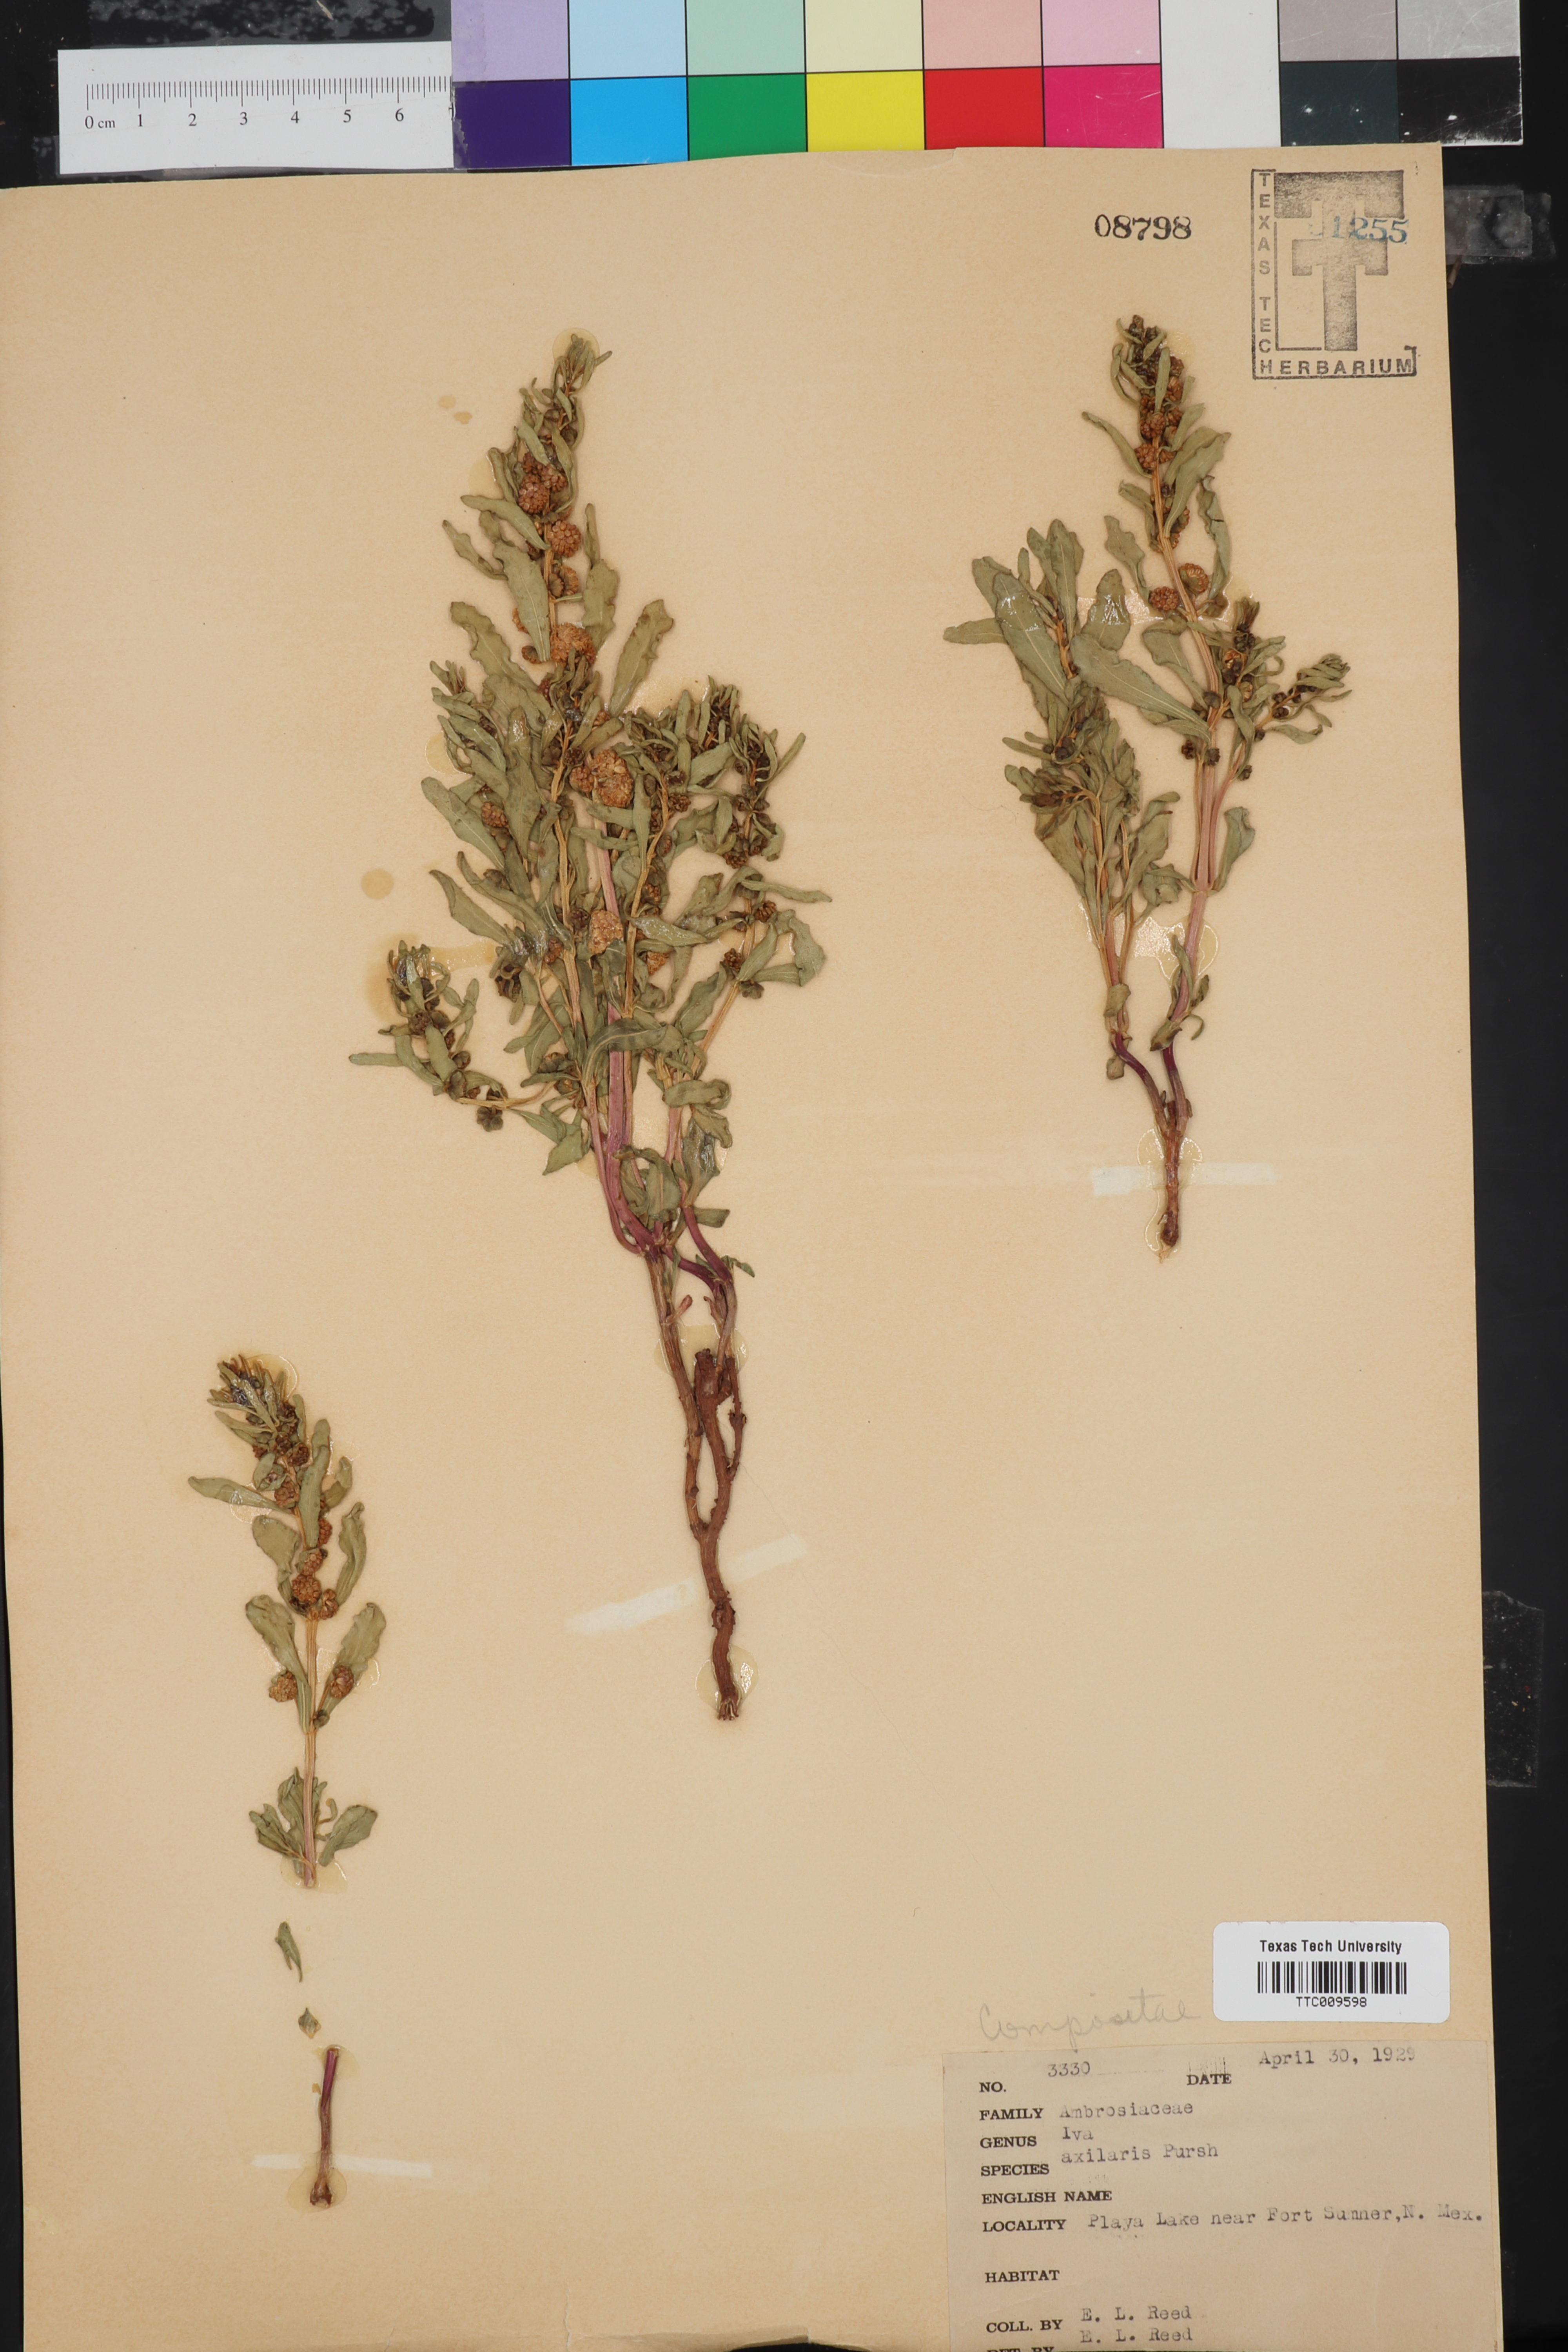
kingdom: Plantae
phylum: Tracheophyta
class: Magnoliopsida
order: Asterales
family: Asteraceae
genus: Iva
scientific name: Iva axillaris
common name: Poverty sumpweed
